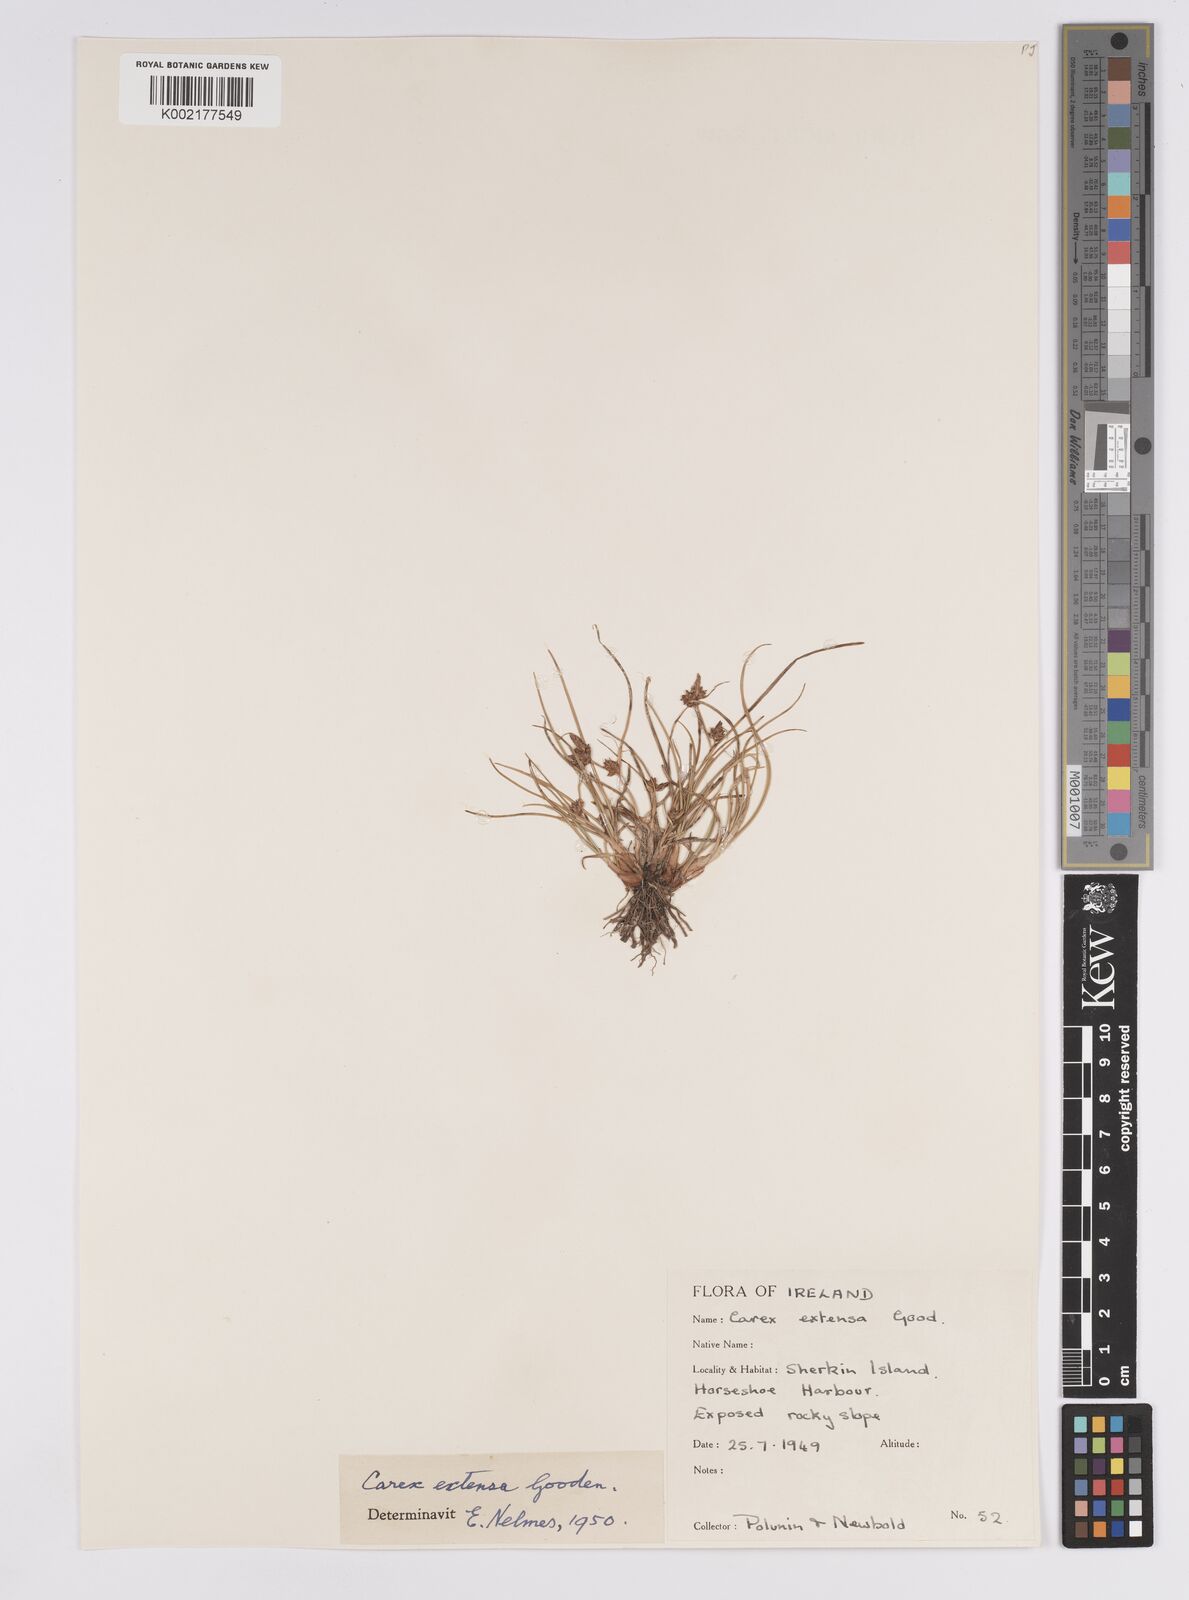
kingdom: Plantae
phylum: Tracheophyta
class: Liliopsida
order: Poales
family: Cyperaceae
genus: Carex
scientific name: Carex extensa
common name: Long-bracted sedge
